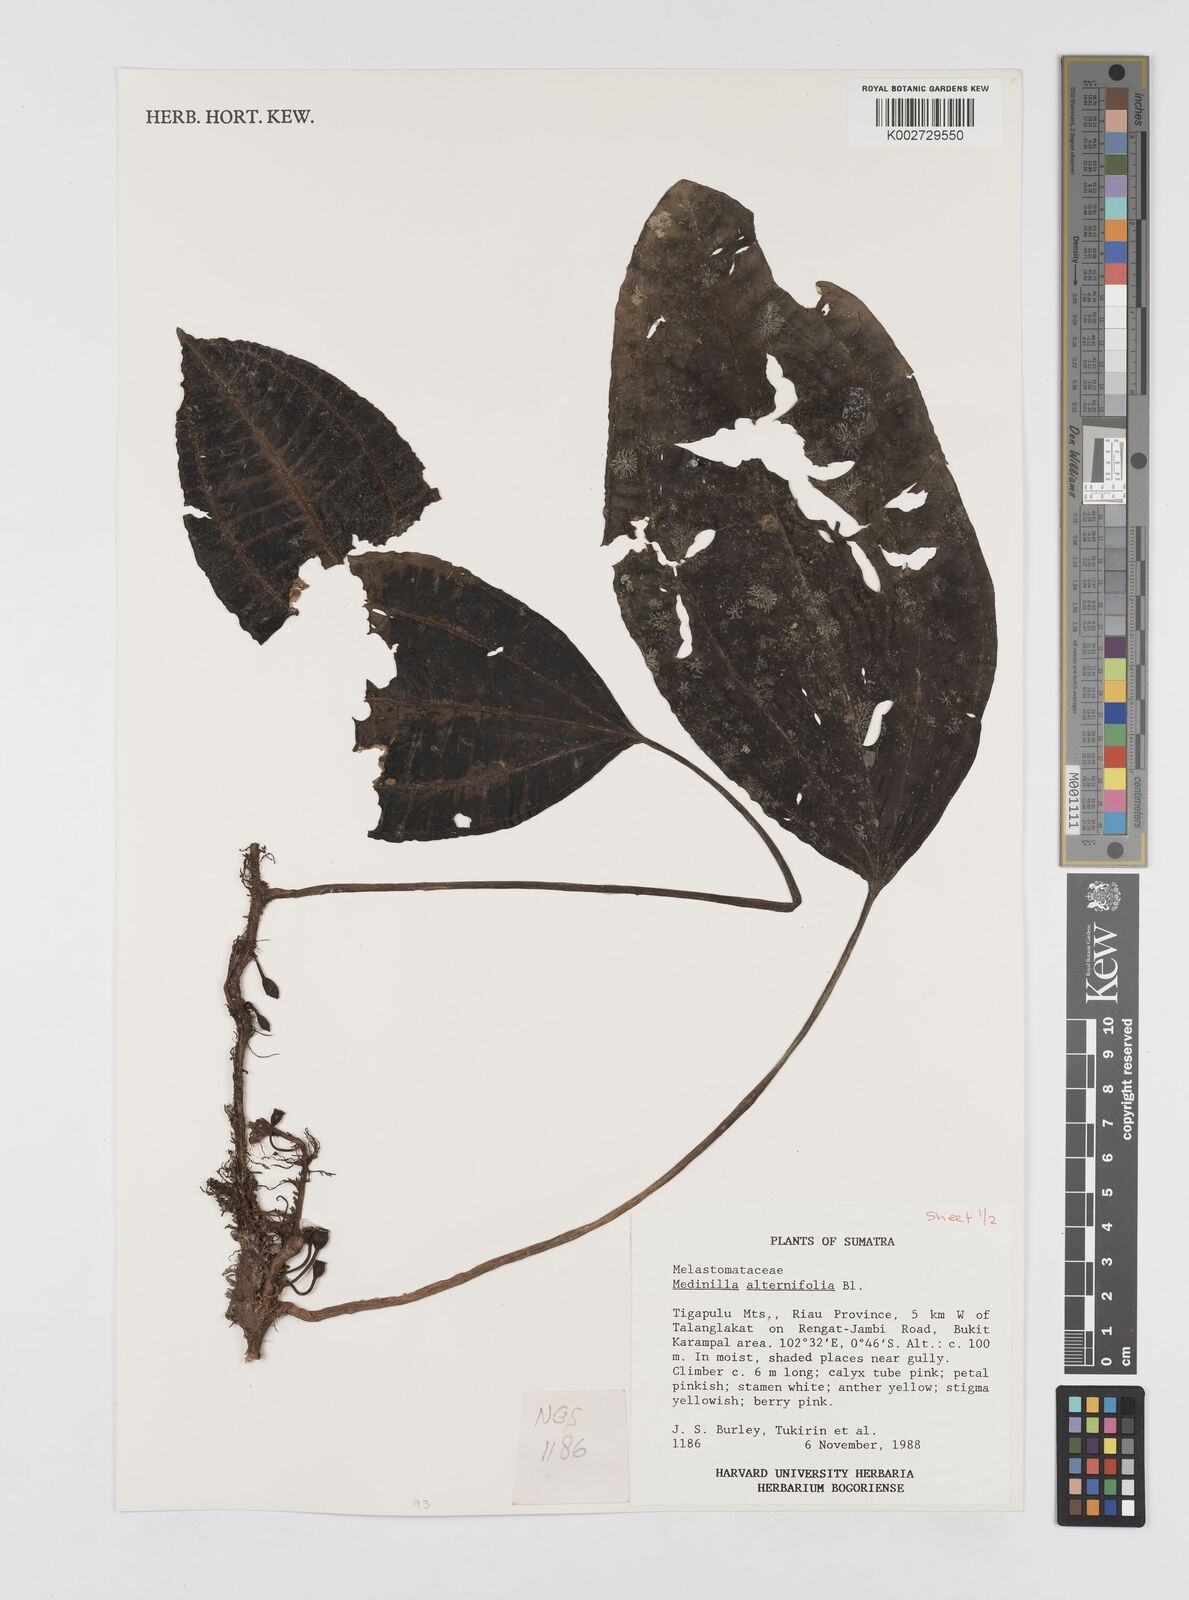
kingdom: Plantae
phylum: Tracheophyta
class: Magnoliopsida
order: Myrtales
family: Melastomataceae
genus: Heteroblemma
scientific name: Heteroblemma alternifolium
